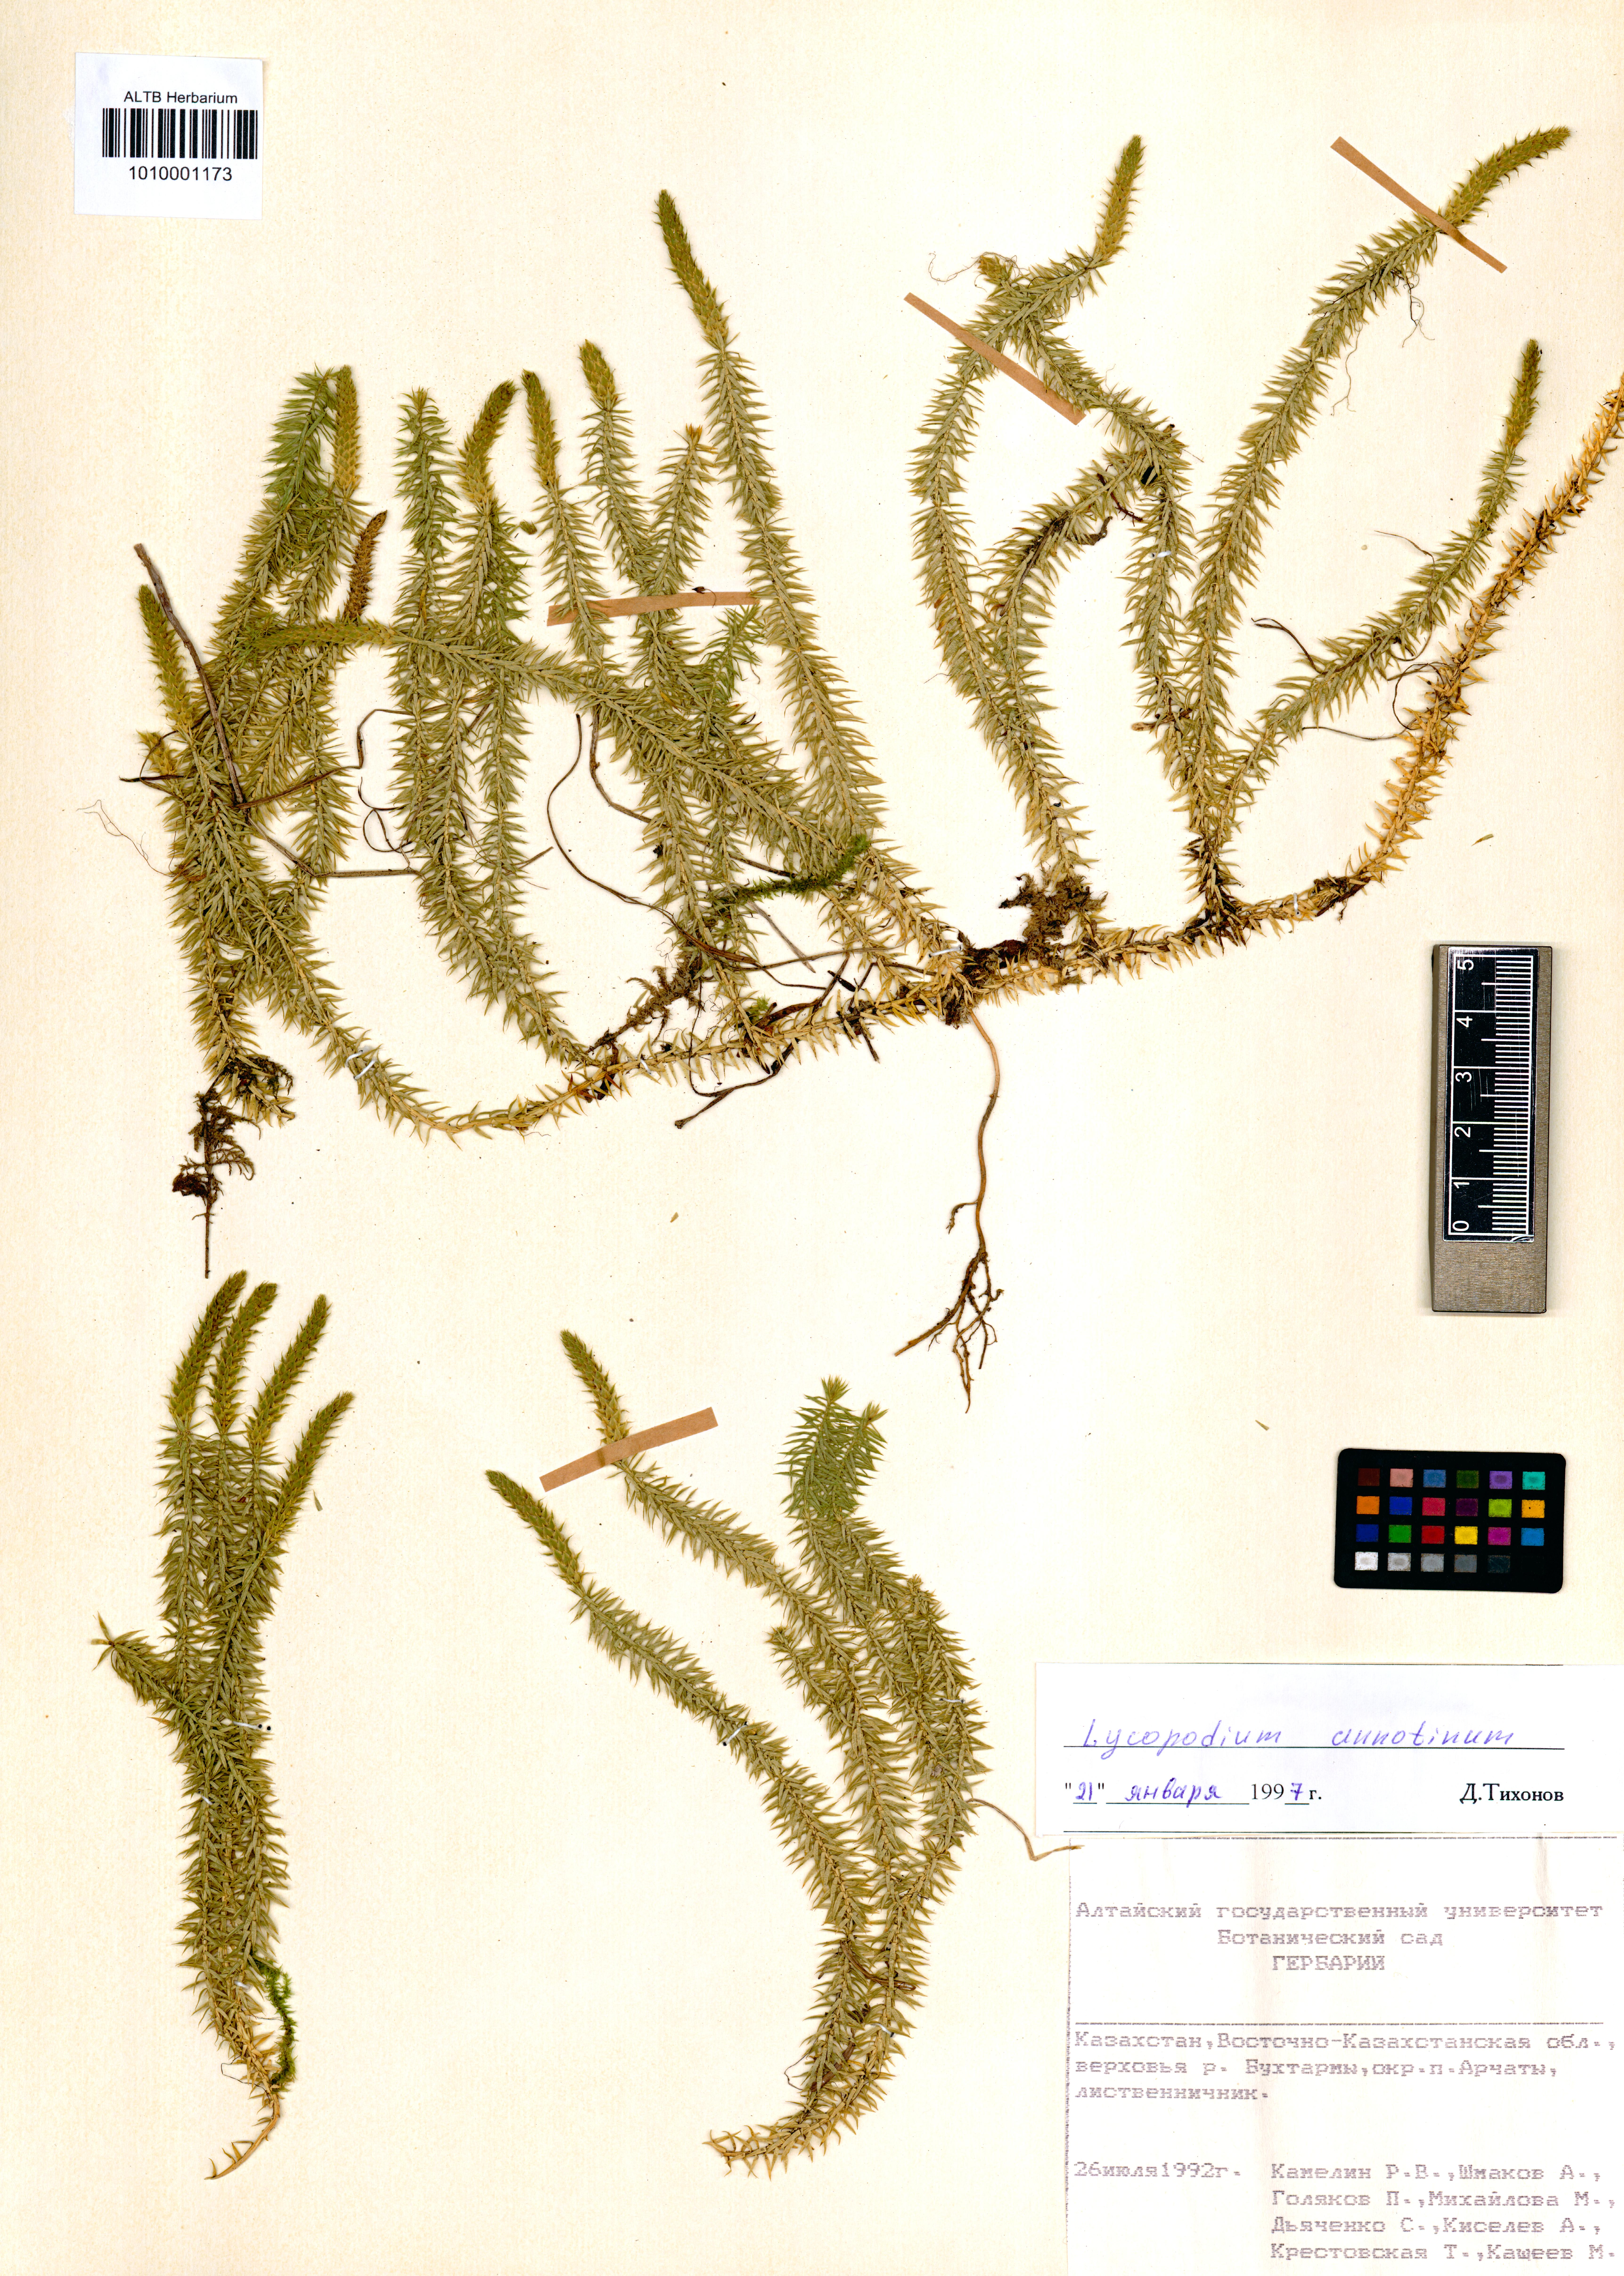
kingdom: Plantae
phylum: Tracheophyta
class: Lycopodiopsida
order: Lycopodiales
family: Lycopodiaceae
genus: Spinulum
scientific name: Spinulum annotinum
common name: Interrupted club-moss
